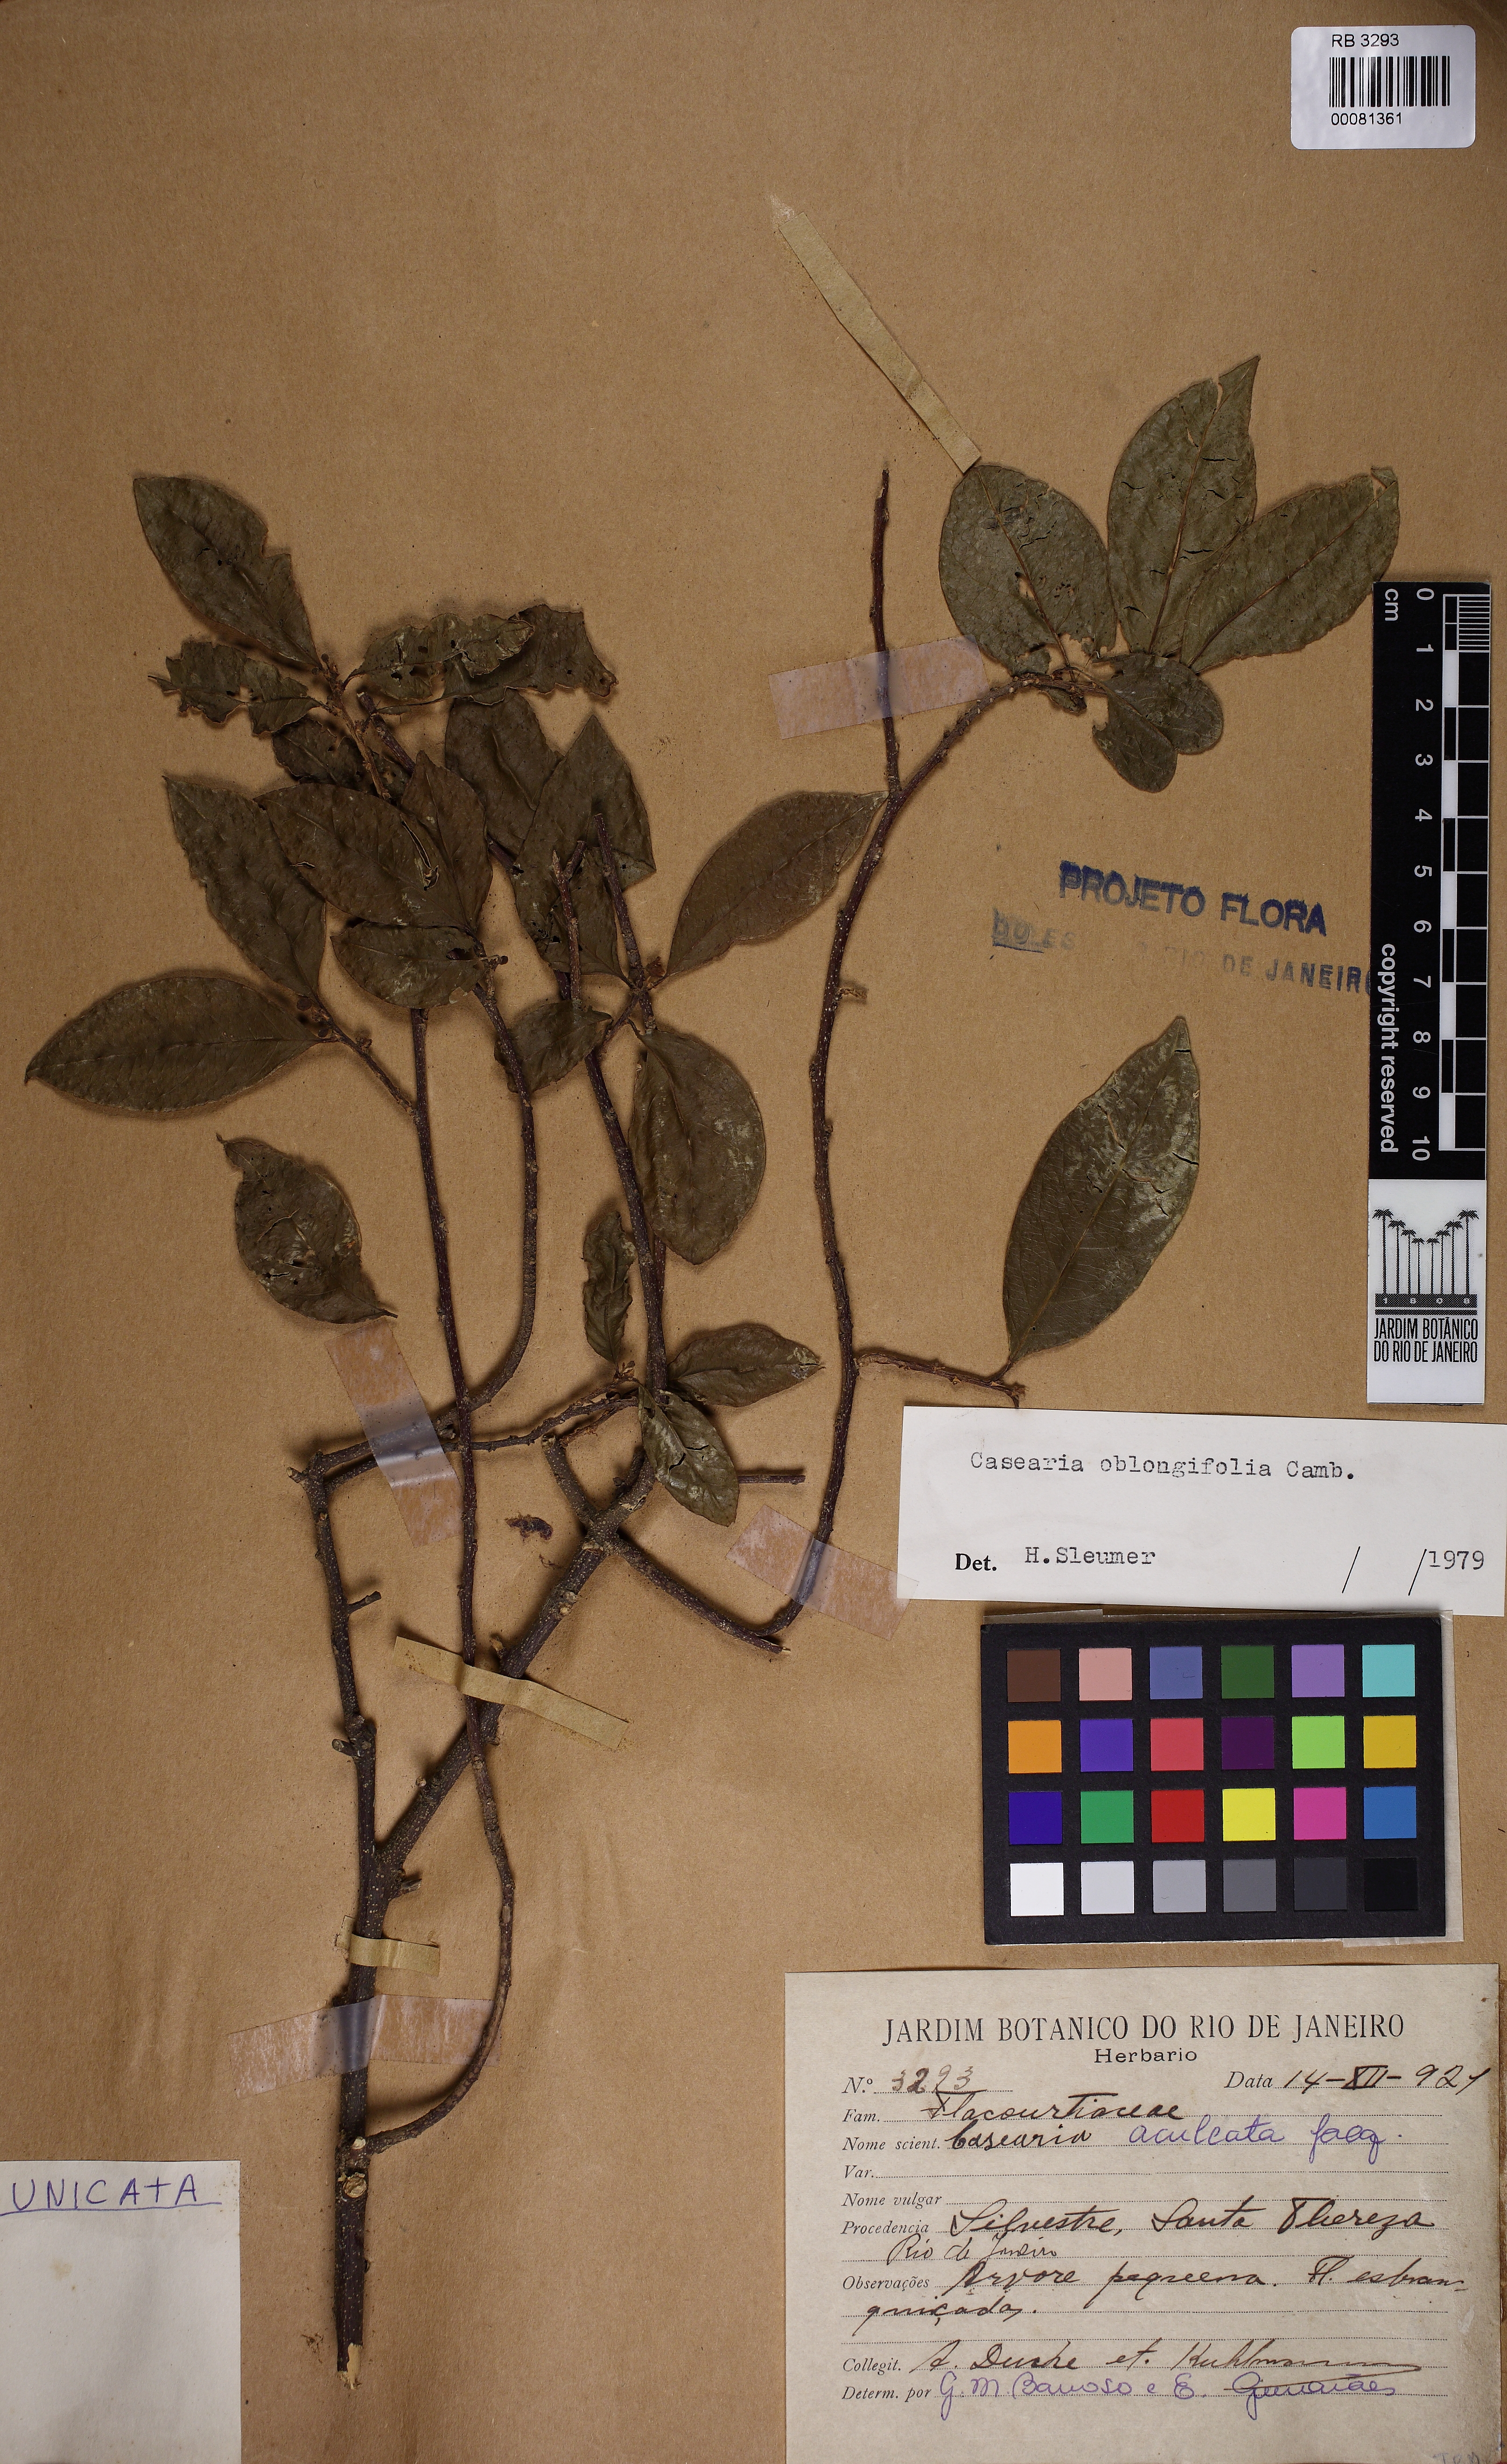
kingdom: Plantae
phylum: Tracheophyta
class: Magnoliopsida
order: Malpighiales
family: Salicaceae
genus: Casearia
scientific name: Casearia oblongifolia
